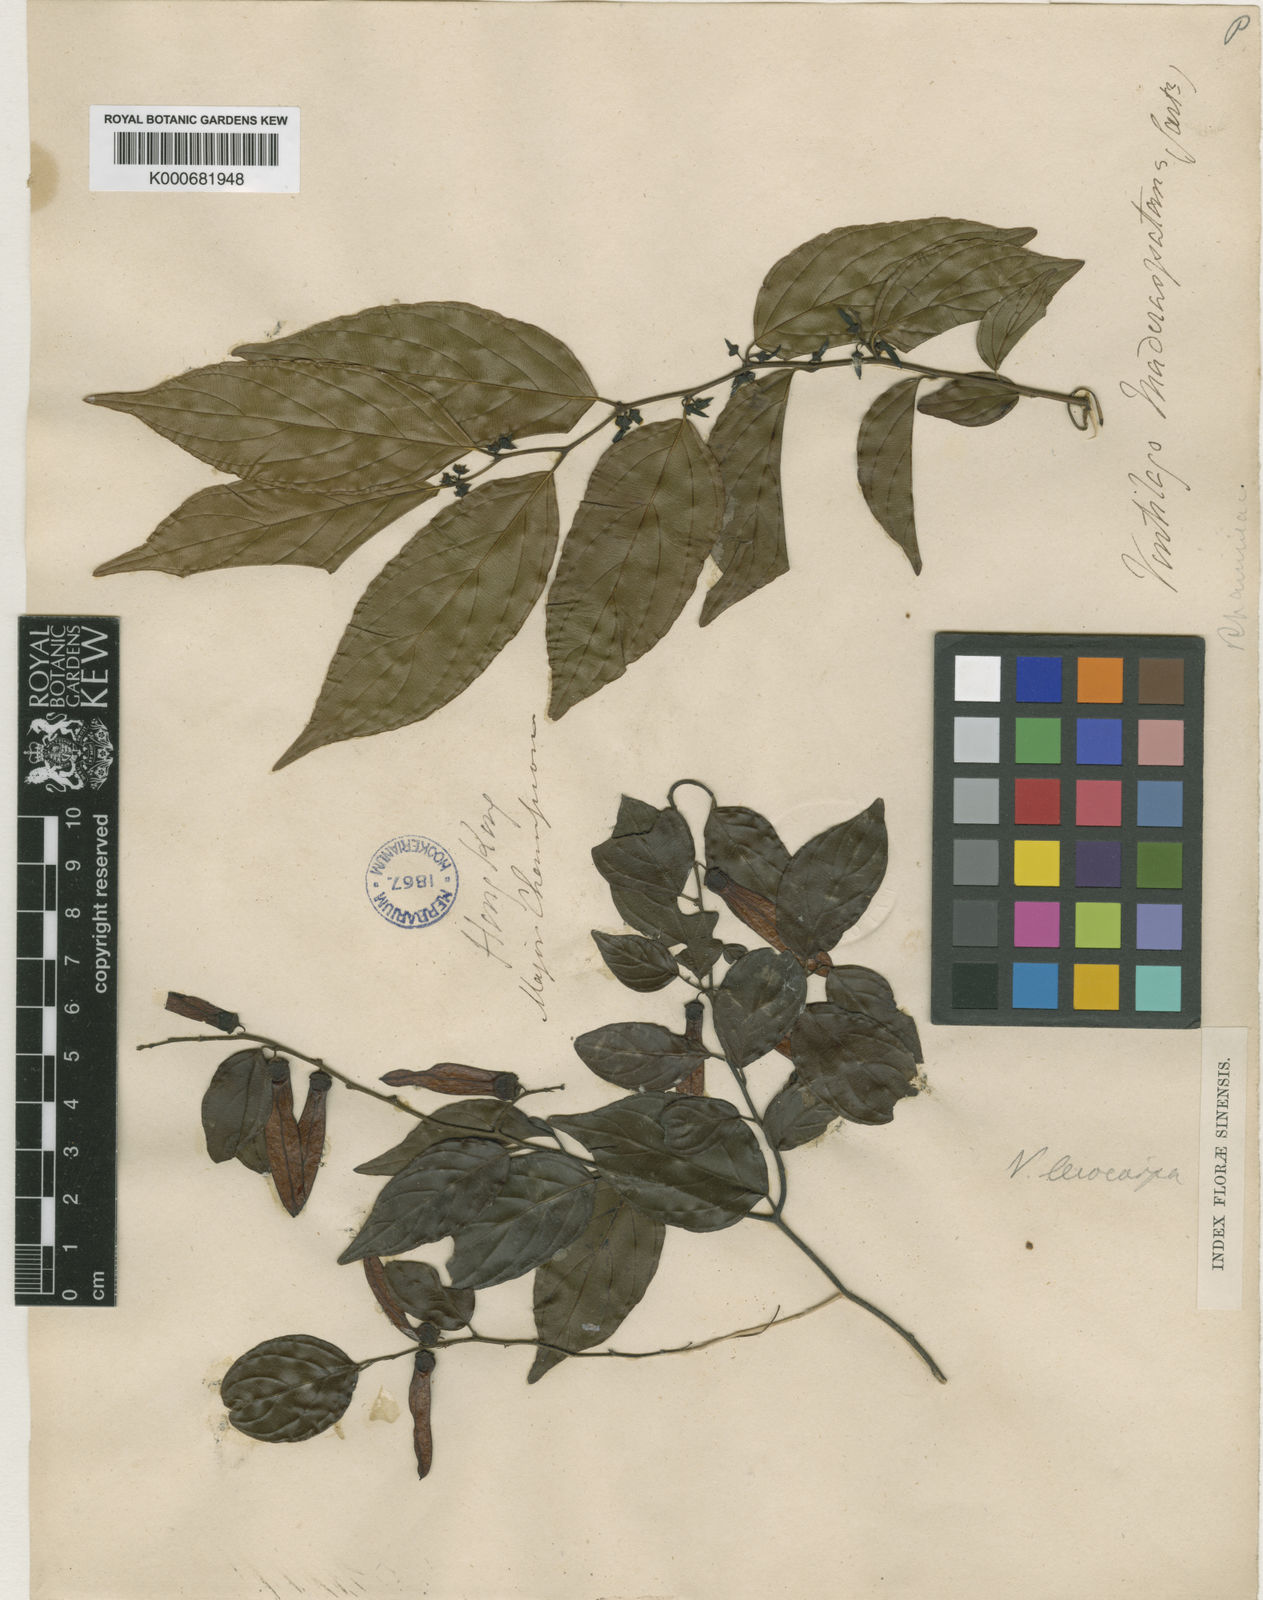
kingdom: Plantae
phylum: Tracheophyta
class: Magnoliopsida
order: Rosales
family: Rhamnaceae
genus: Ventilago
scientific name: Ventilago leiocarpa
